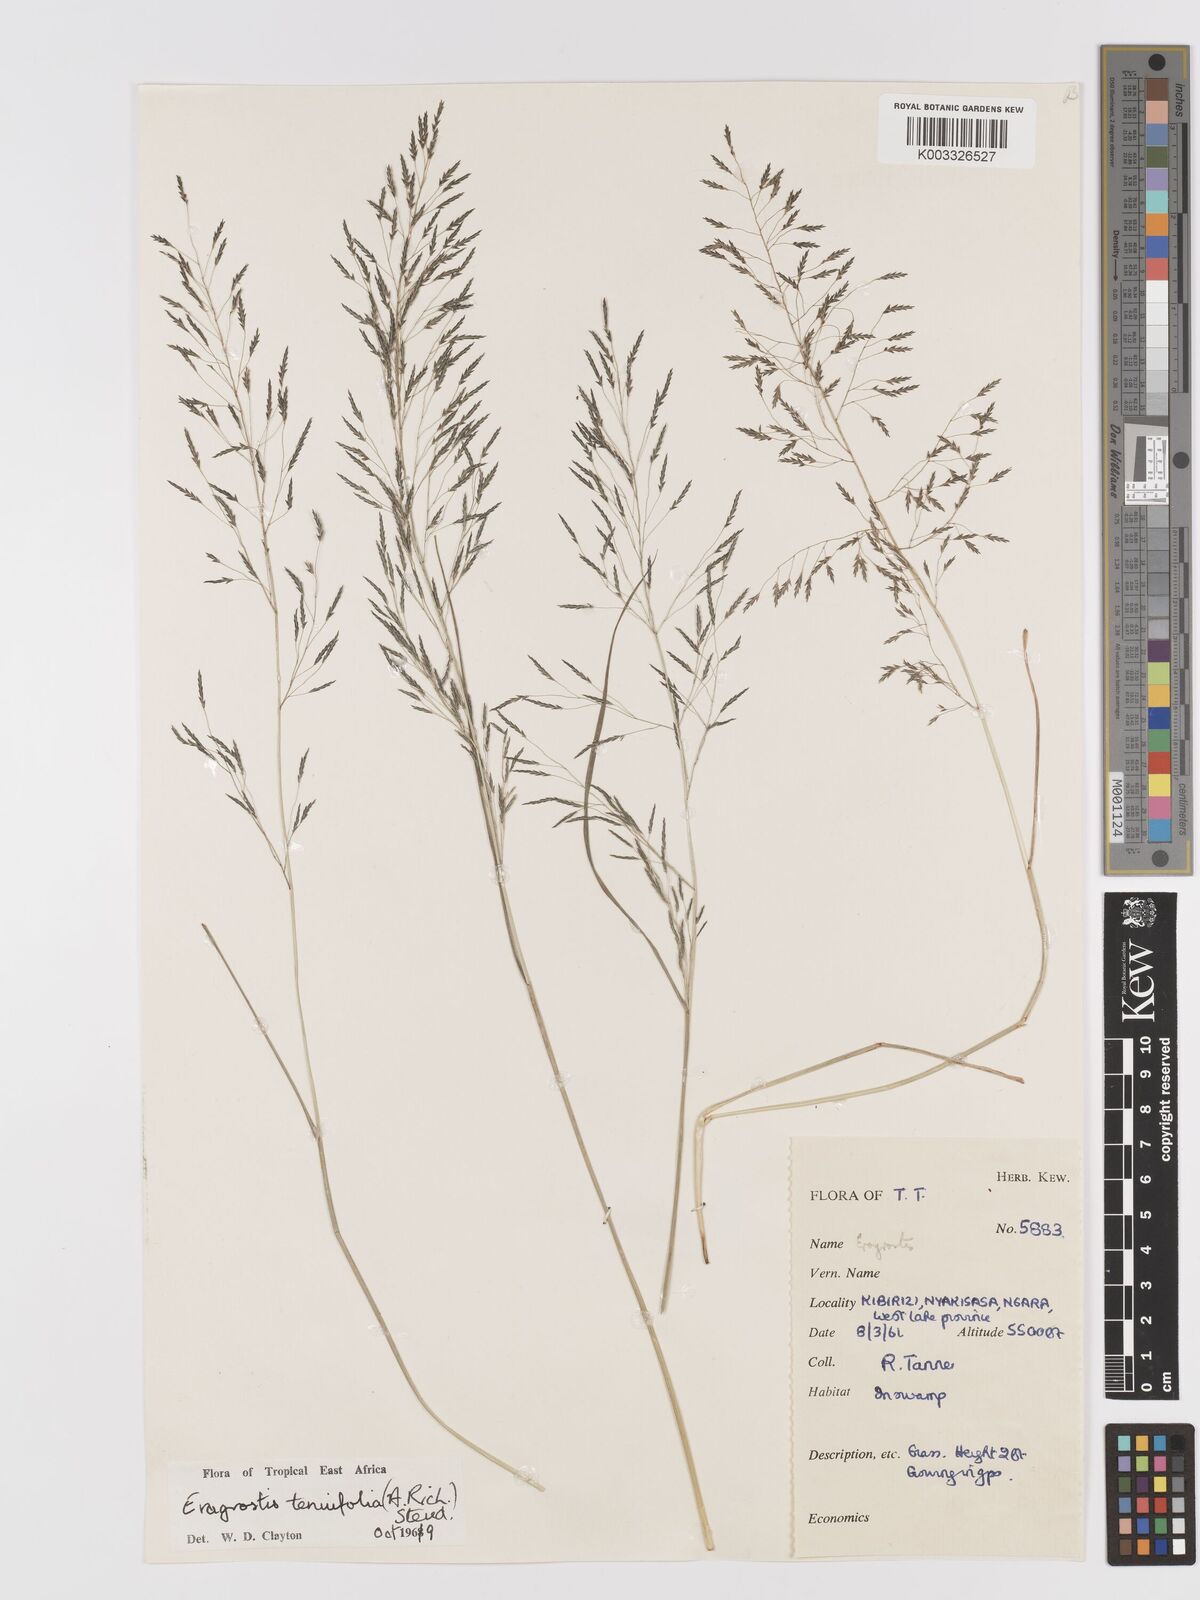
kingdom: Plantae
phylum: Tracheophyta
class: Liliopsida
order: Poales
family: Poaceae
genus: Eragrostis
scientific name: Eragrostis tenuifolia
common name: Elastic grass
